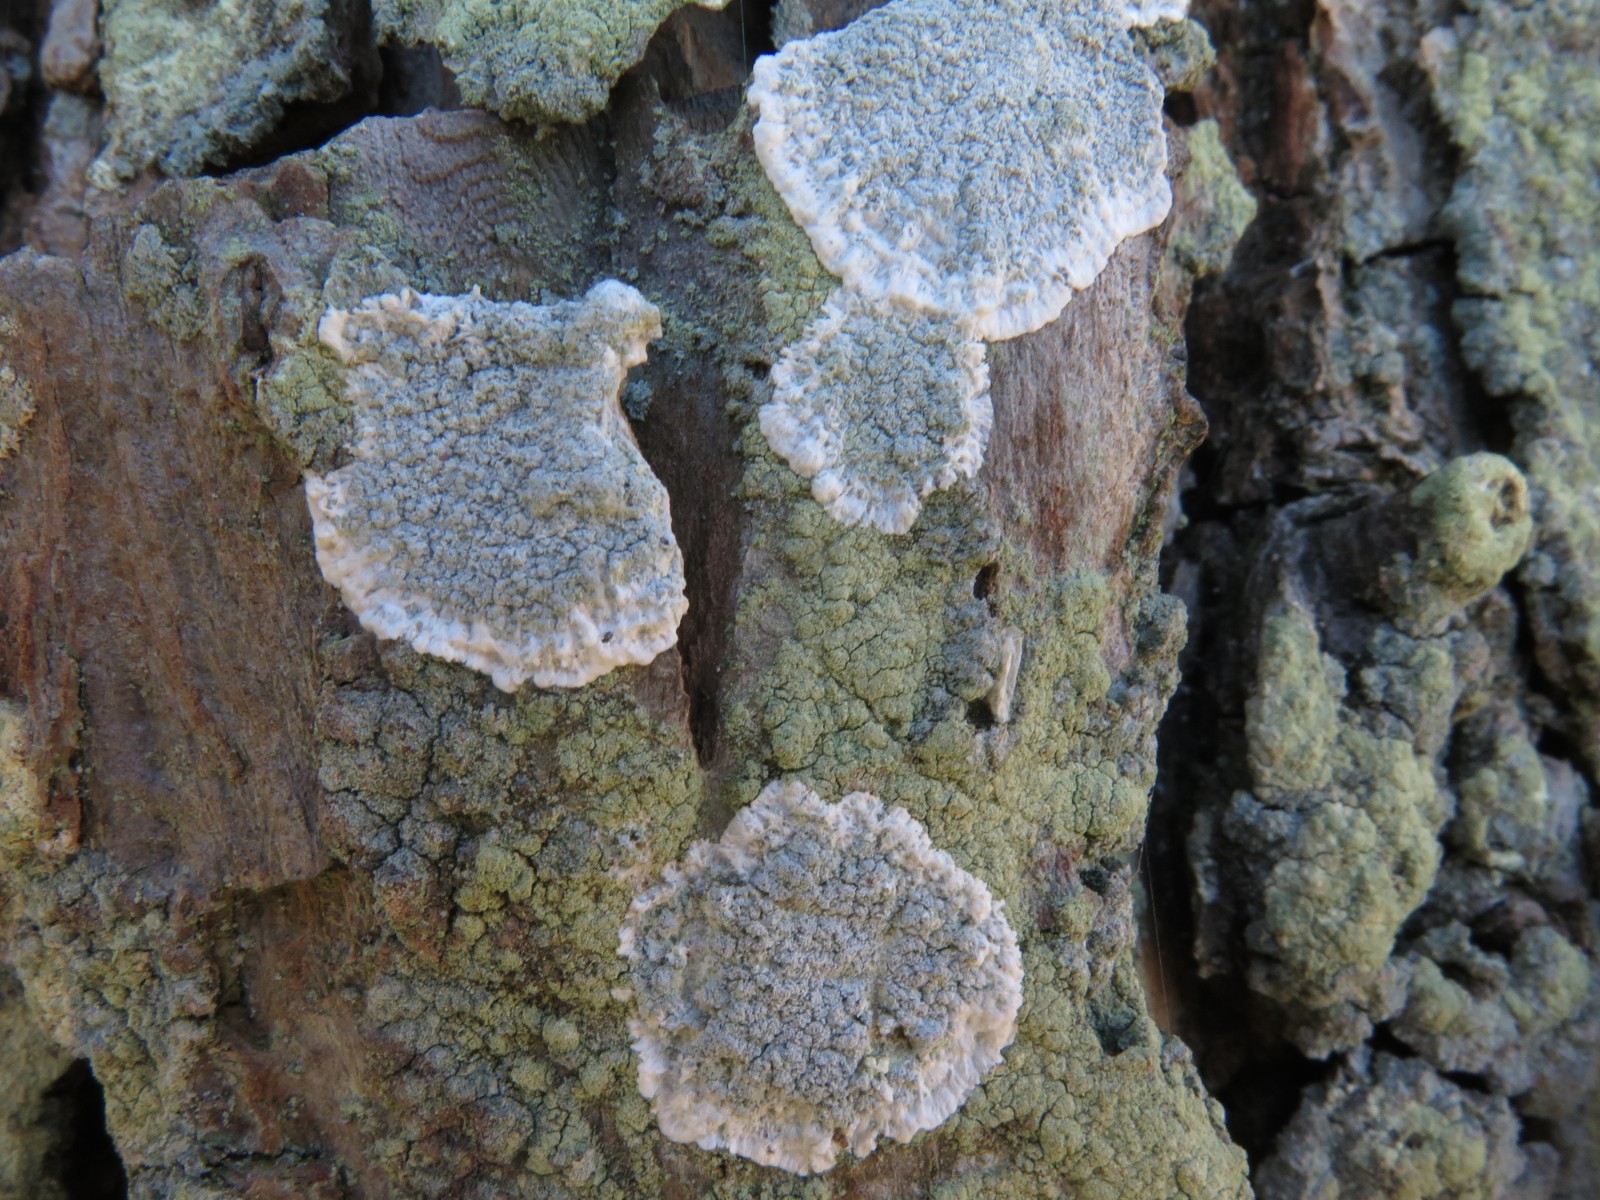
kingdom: Fungi
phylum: Ascomycota
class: Lecanoromycetes
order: Lecanorales
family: Haematommataceae
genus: Haematomma
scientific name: Haematomma ochroleucum
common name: gul trådkantlav
